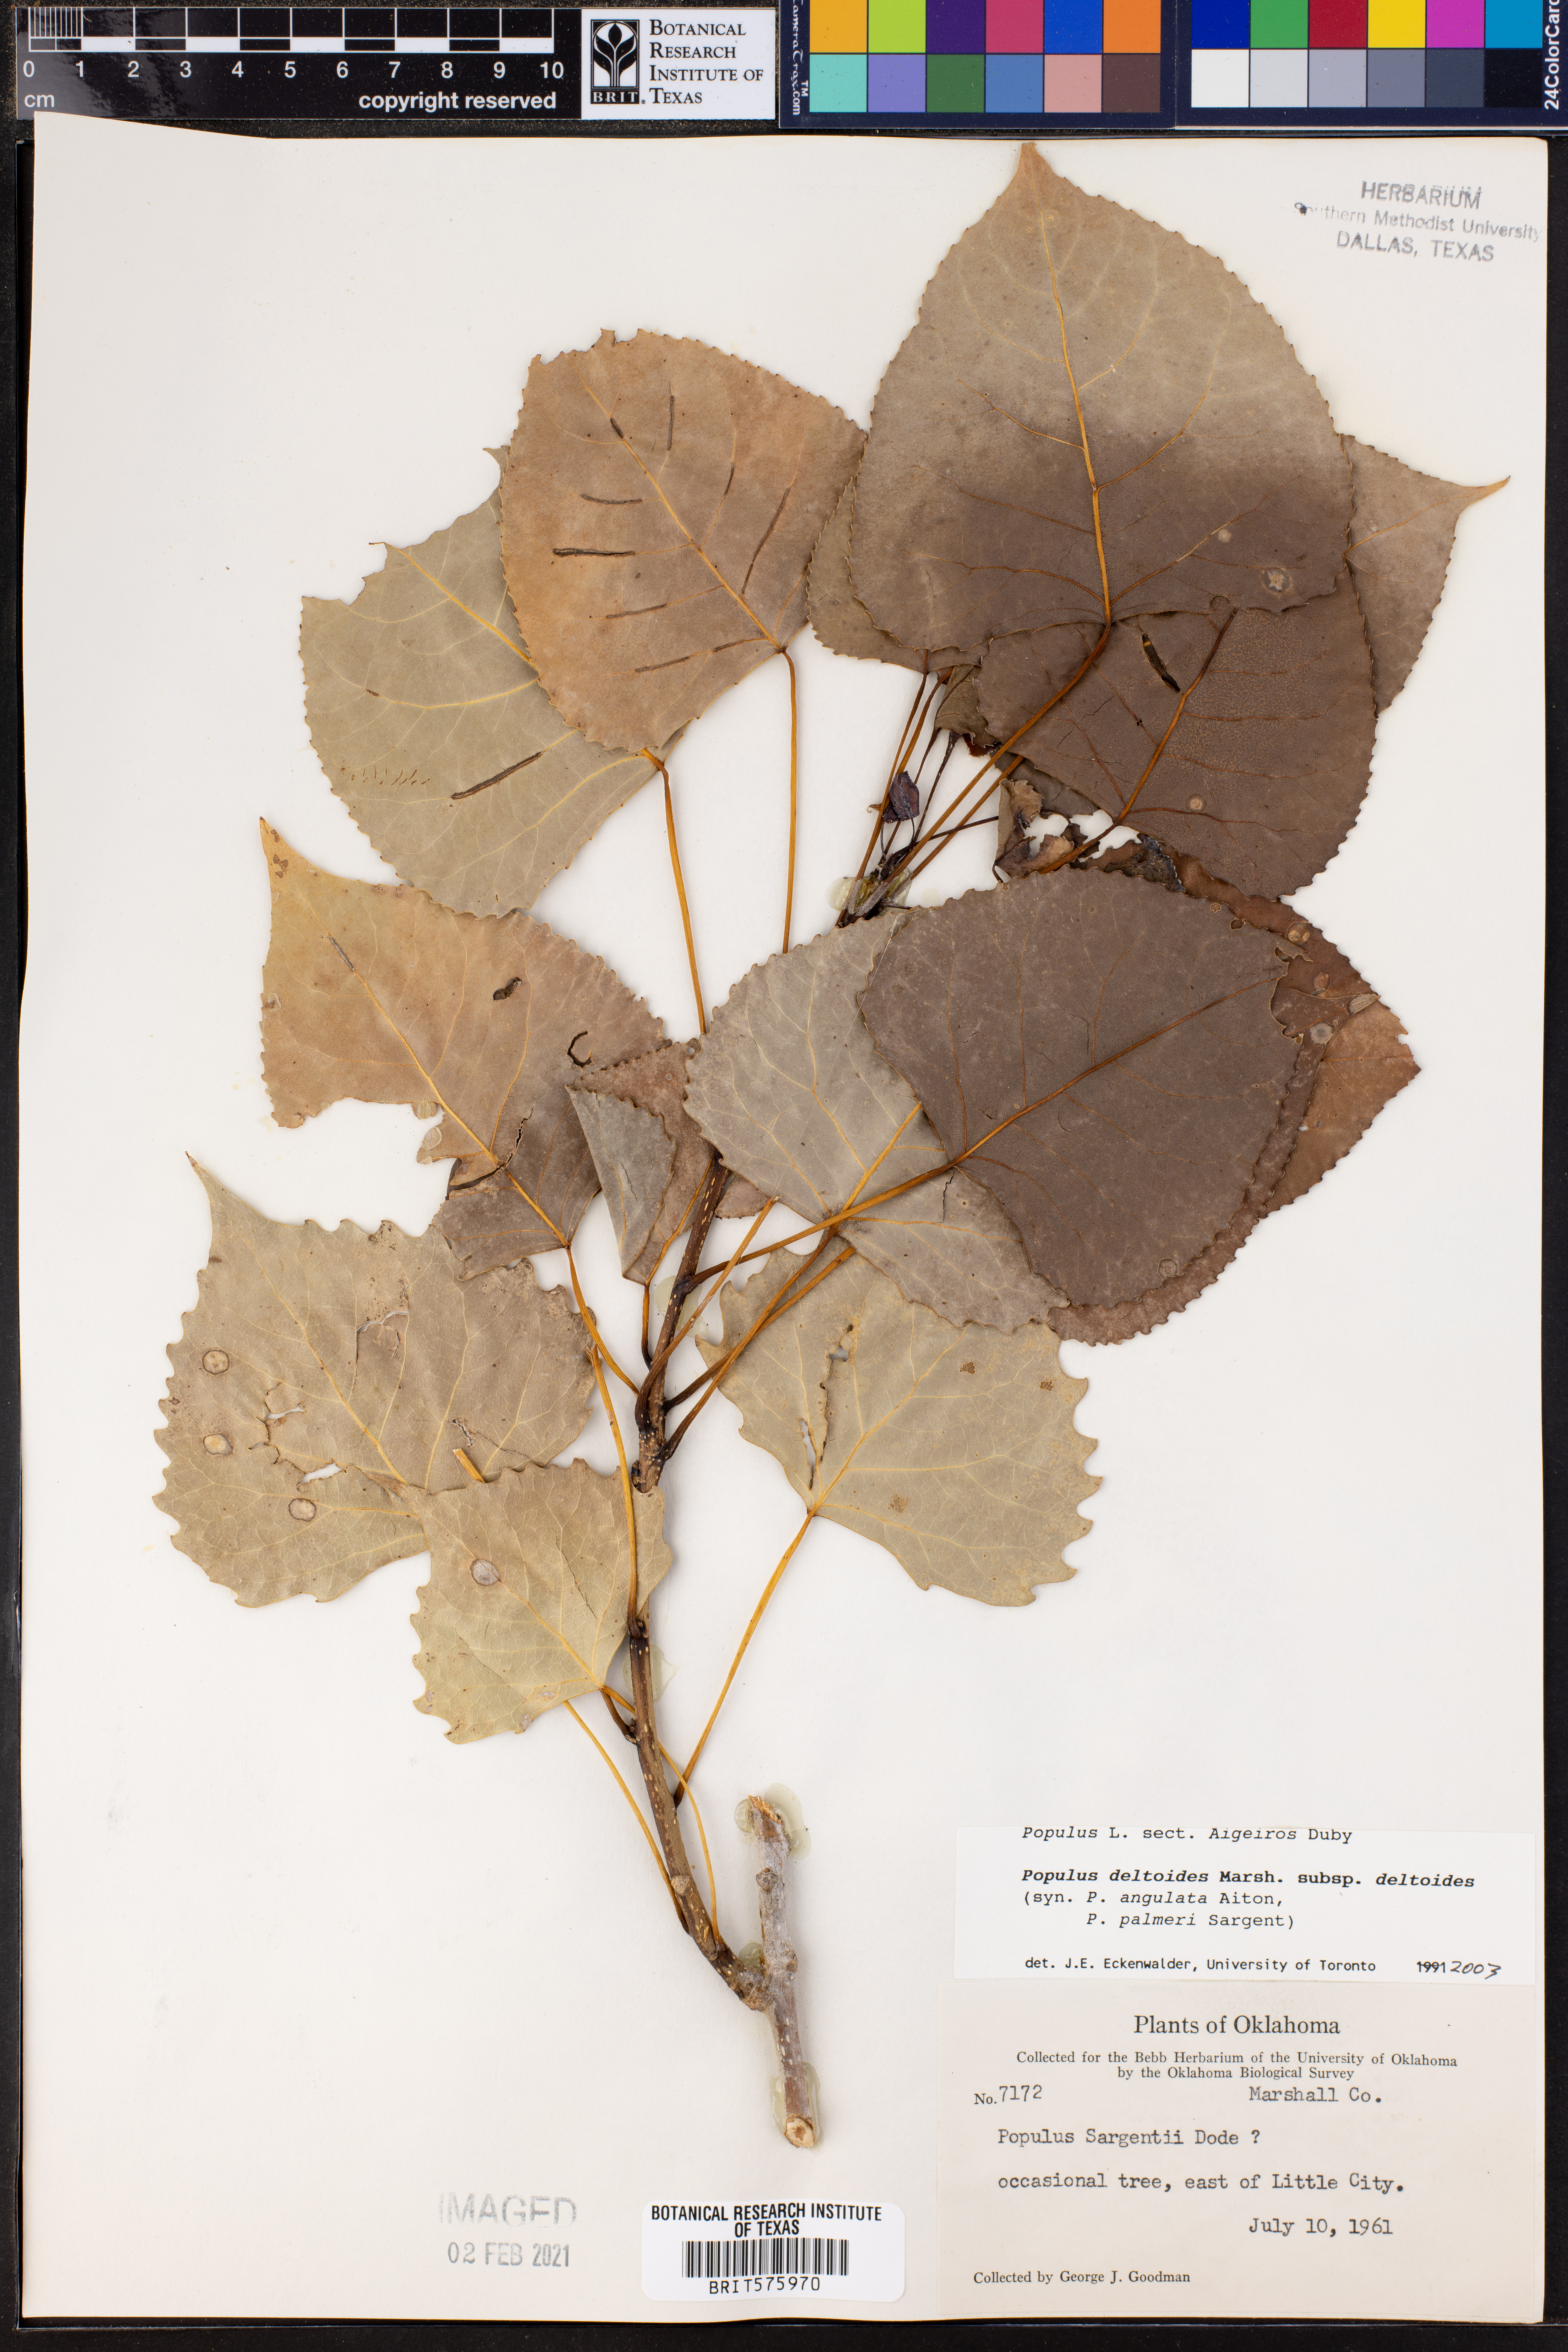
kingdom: Plantae
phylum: Tracheophyta
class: Magnoliopsida
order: Malpighiales
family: Salicaceae
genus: Populus
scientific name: Populus deltoides
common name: Eastern cottonwood
